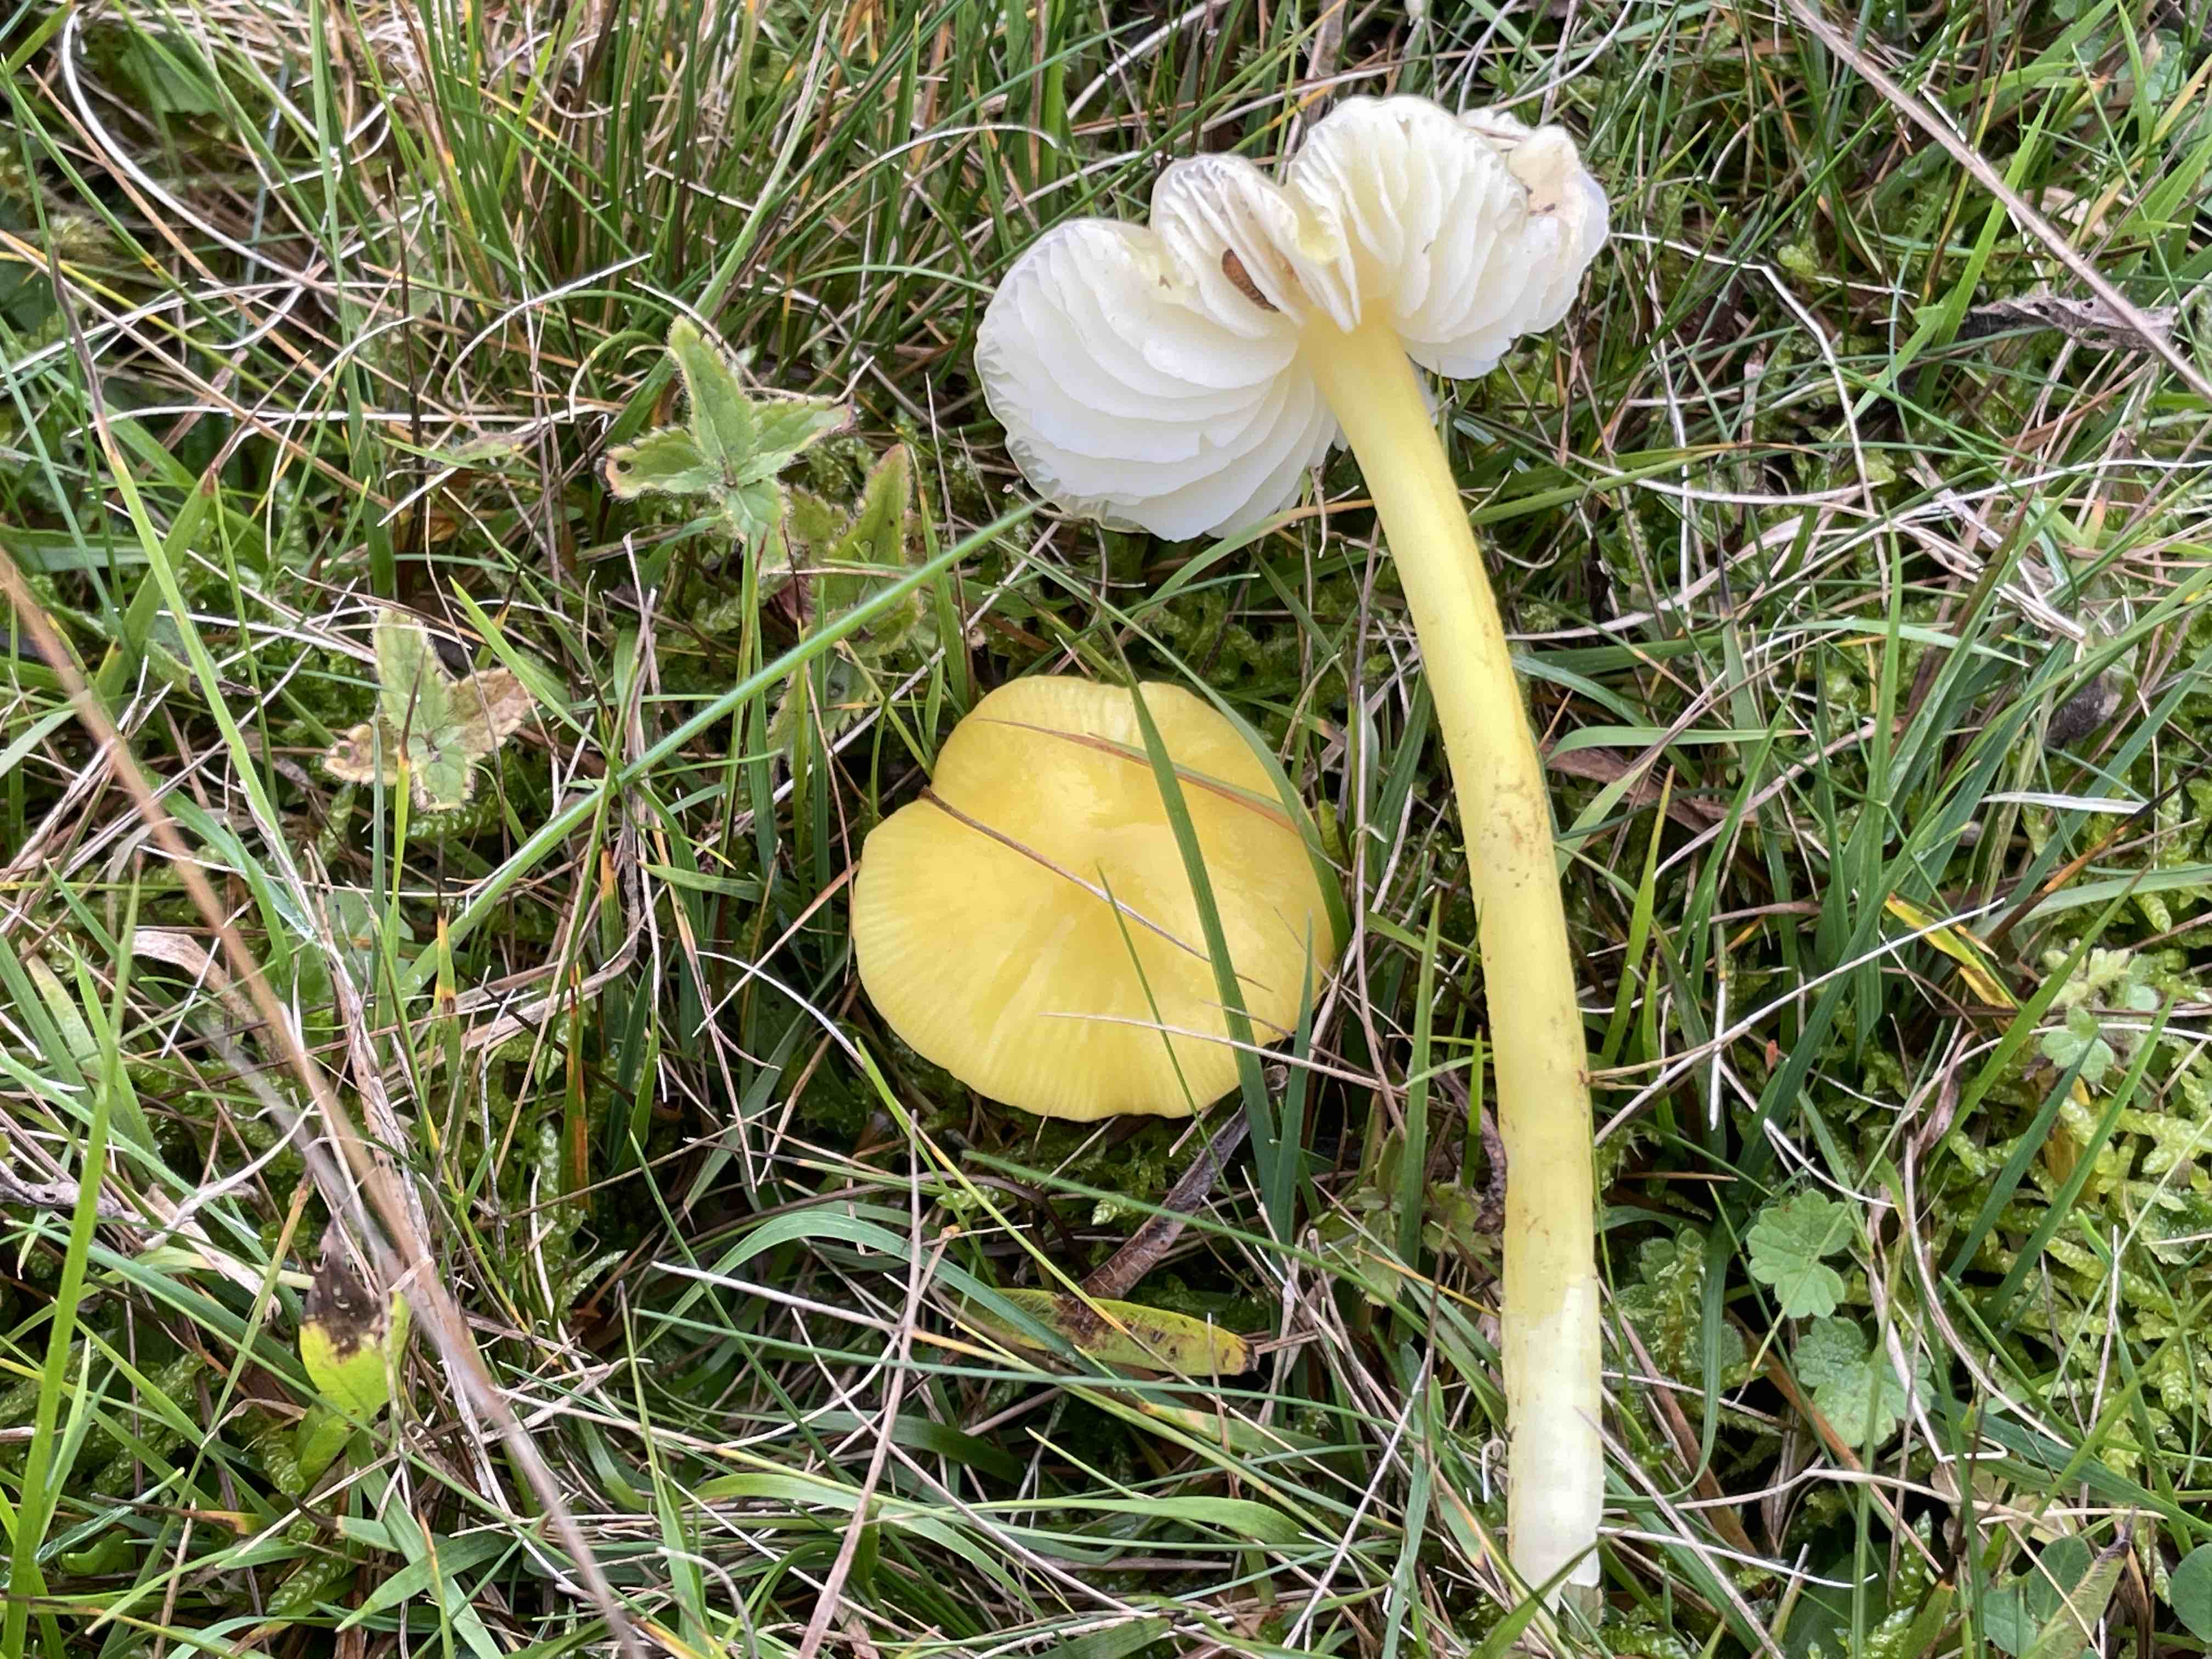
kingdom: Fungi
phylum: Basidiomycota
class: Agaricomycetes
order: Agaricales
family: Hygrophoraceae
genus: Hygrocybe
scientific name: Hygrocybe chlorophana
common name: gul vokshat
